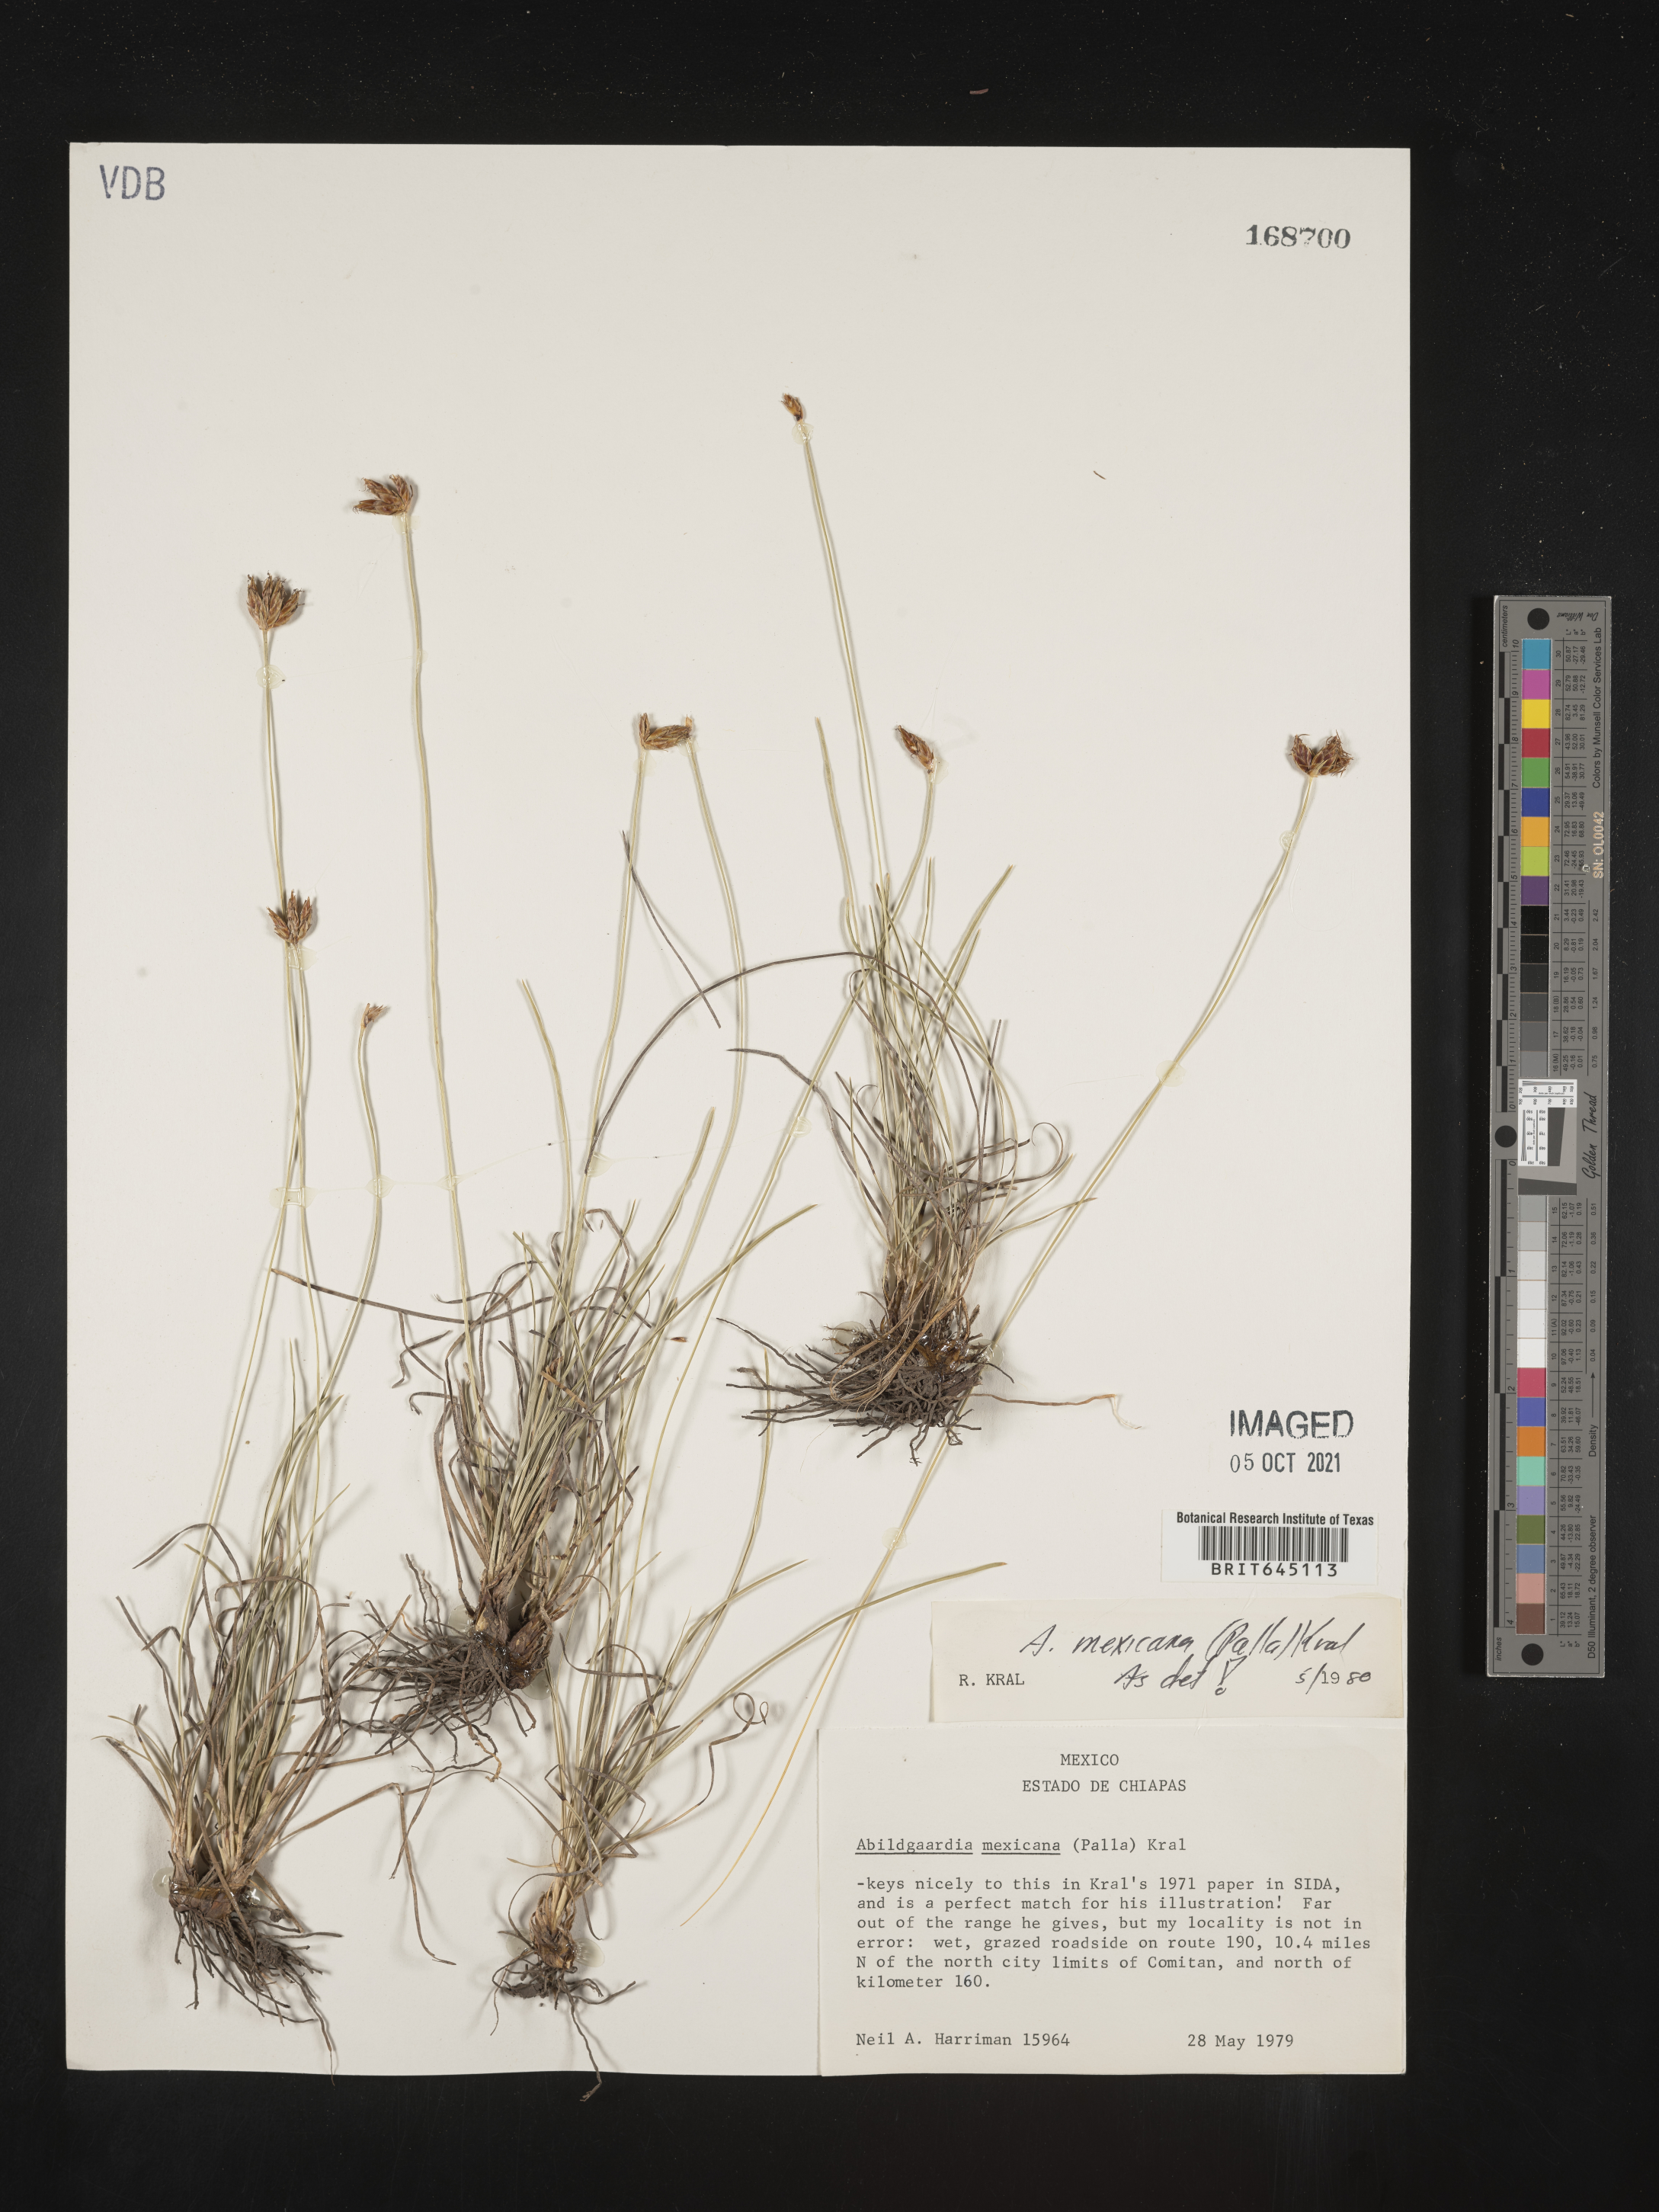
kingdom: Plantae
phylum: Tracheophyta
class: Liliopsida
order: Poales
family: Cyperaceae
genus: Abildgaardia
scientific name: Abildgaardia mexicana
